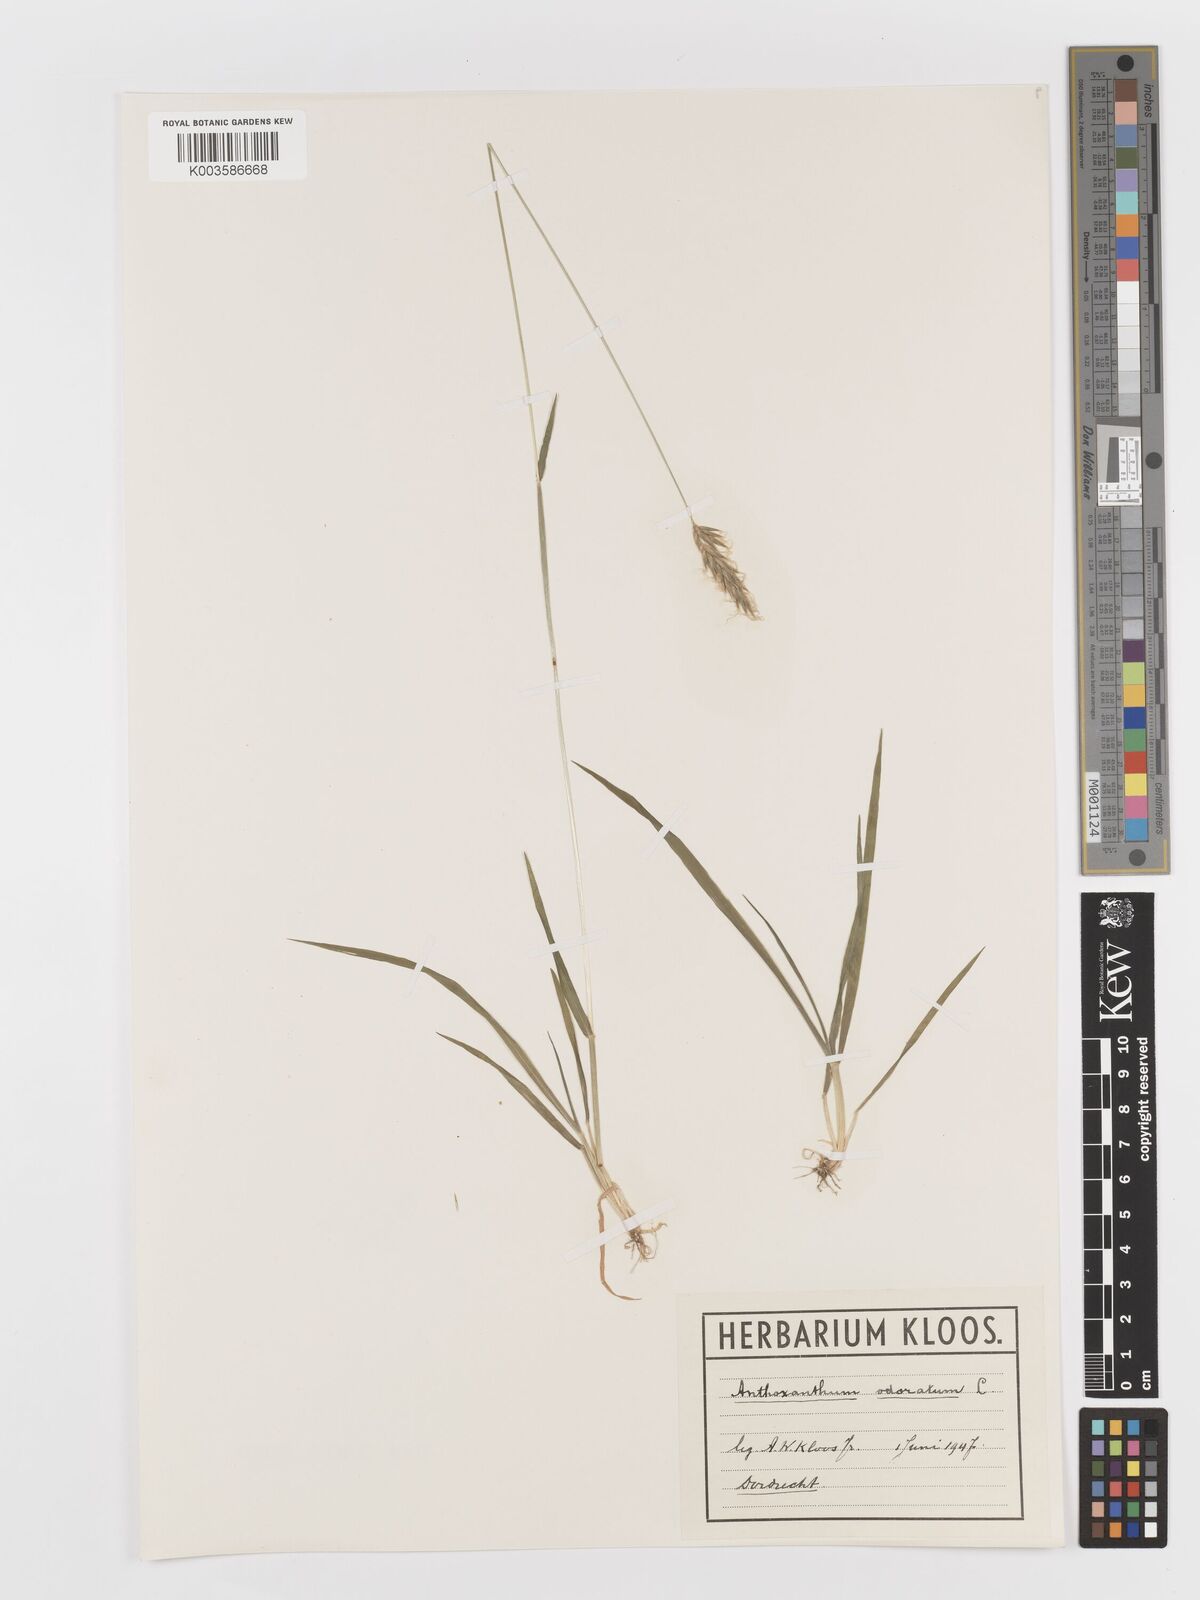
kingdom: Plantae
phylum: Tracheophyta
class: Liliopsida
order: Poales
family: Poaceae
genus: Anthoxanthum
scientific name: Anthoxanthum odoratum
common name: Sweet vernalgrass
